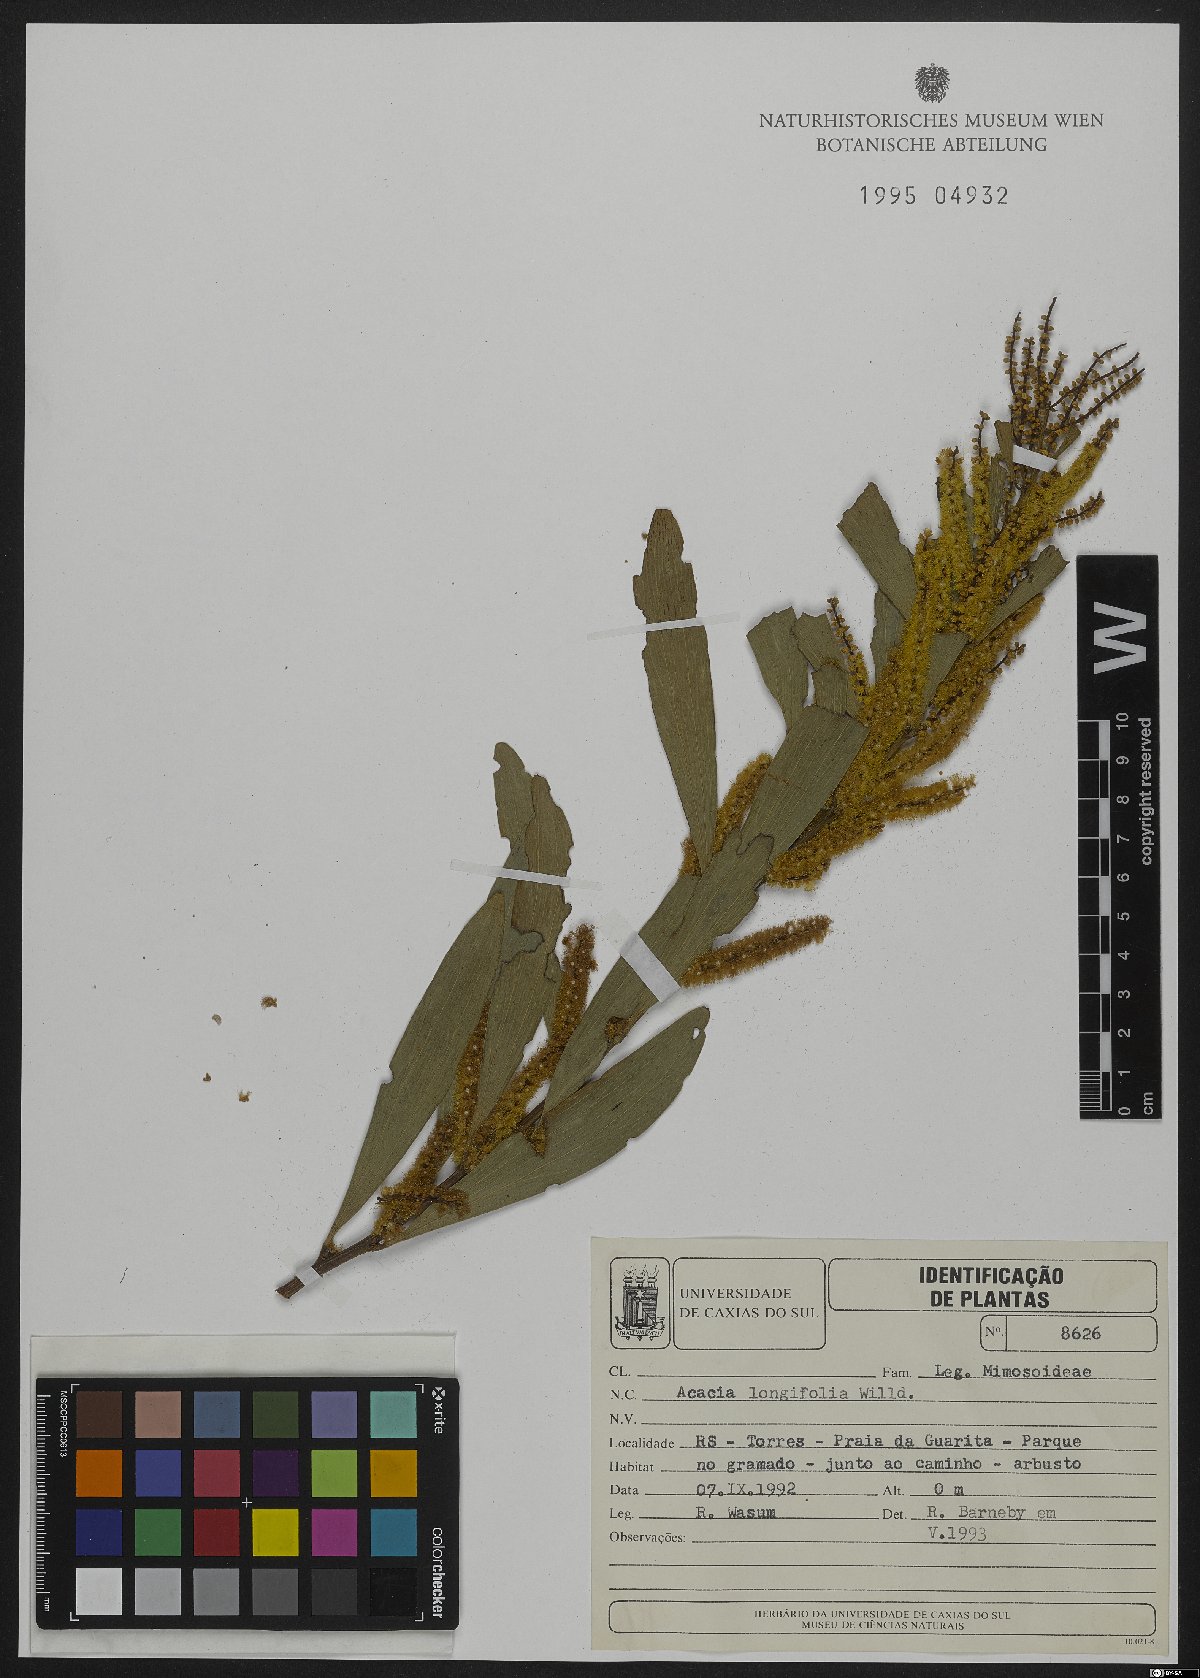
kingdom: Plantae
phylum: Tracheophyta
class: Magnoliopsida
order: Fabales
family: Fabaceae
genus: Acacia
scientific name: Acacia longifolia
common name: Sydney golden wattle
